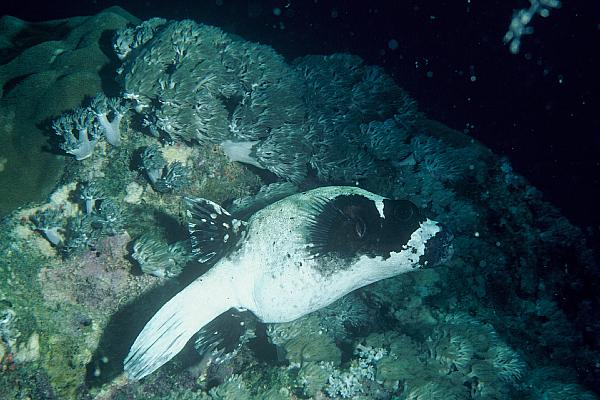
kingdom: Animalia
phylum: Chordata
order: Tetraodontiformes
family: Tetraodontidae
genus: Arothron
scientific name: Arothron diadematus
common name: Masked puffer
